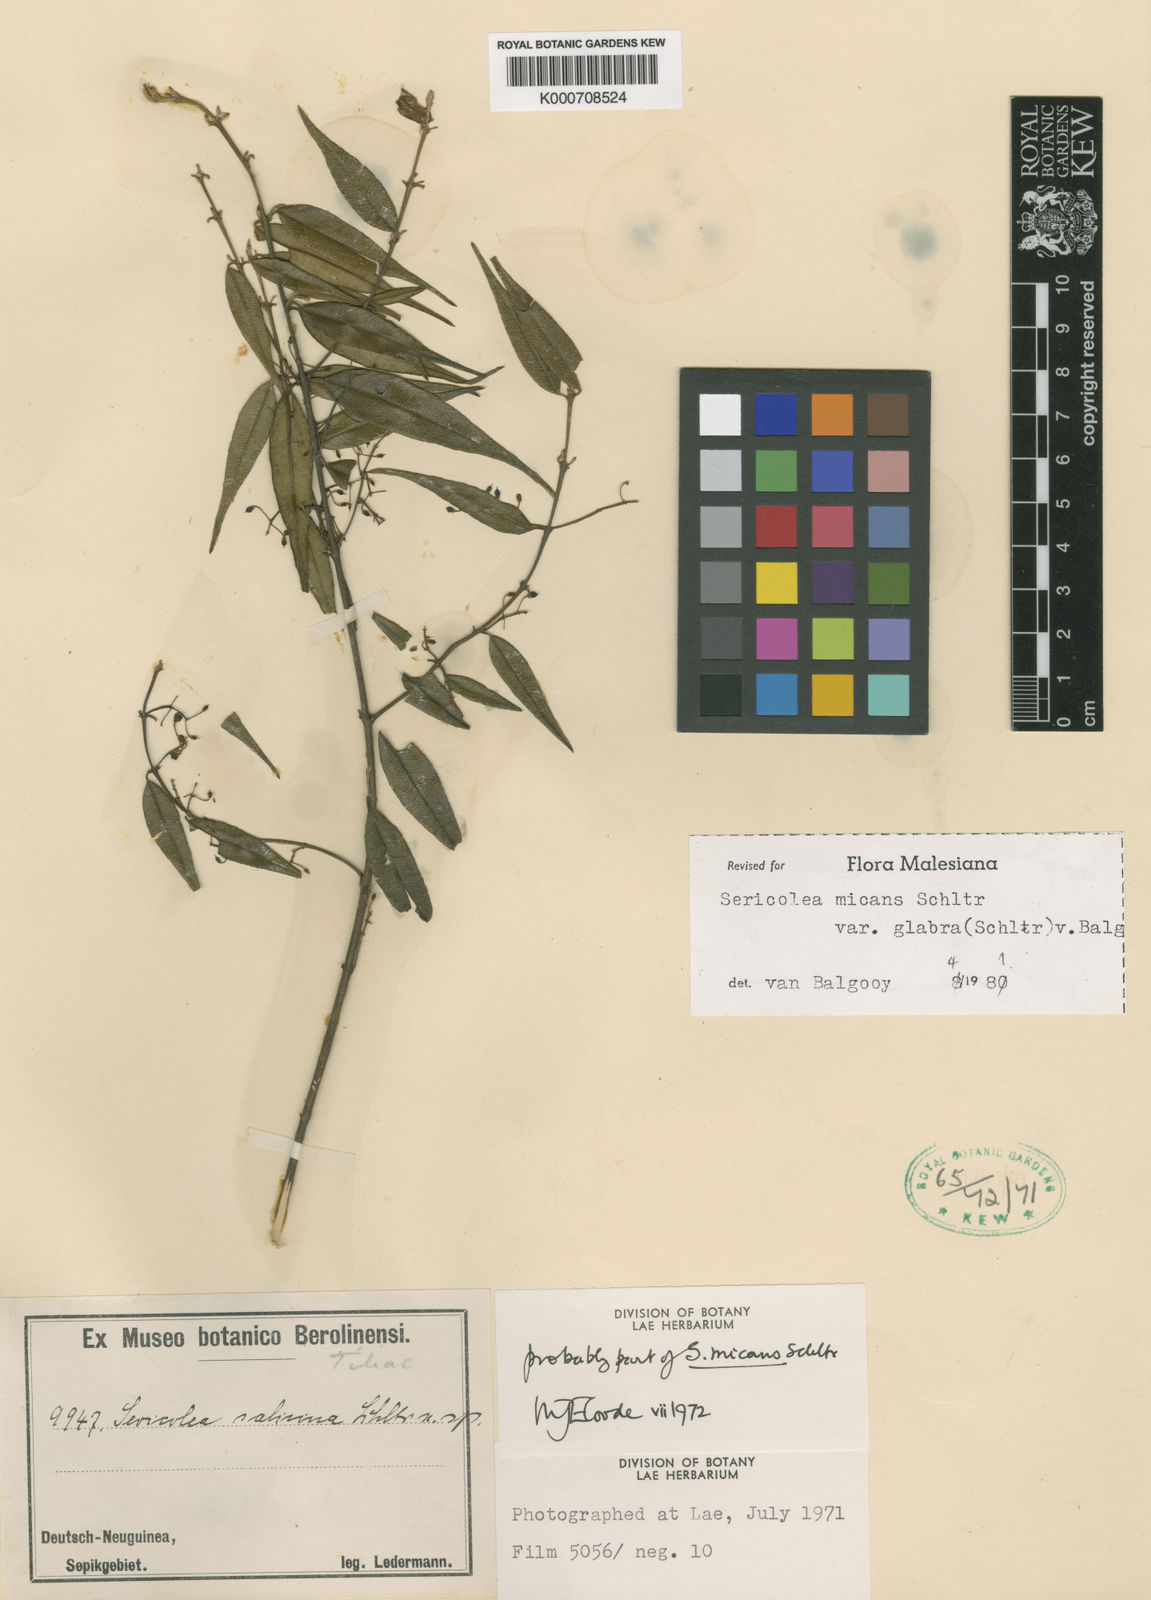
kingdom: Plantae
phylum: Tracheophyta
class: Magnoliopsida
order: Oxalidales
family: Elaeocarpaceae
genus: Sericolea
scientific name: Sericolea micans
